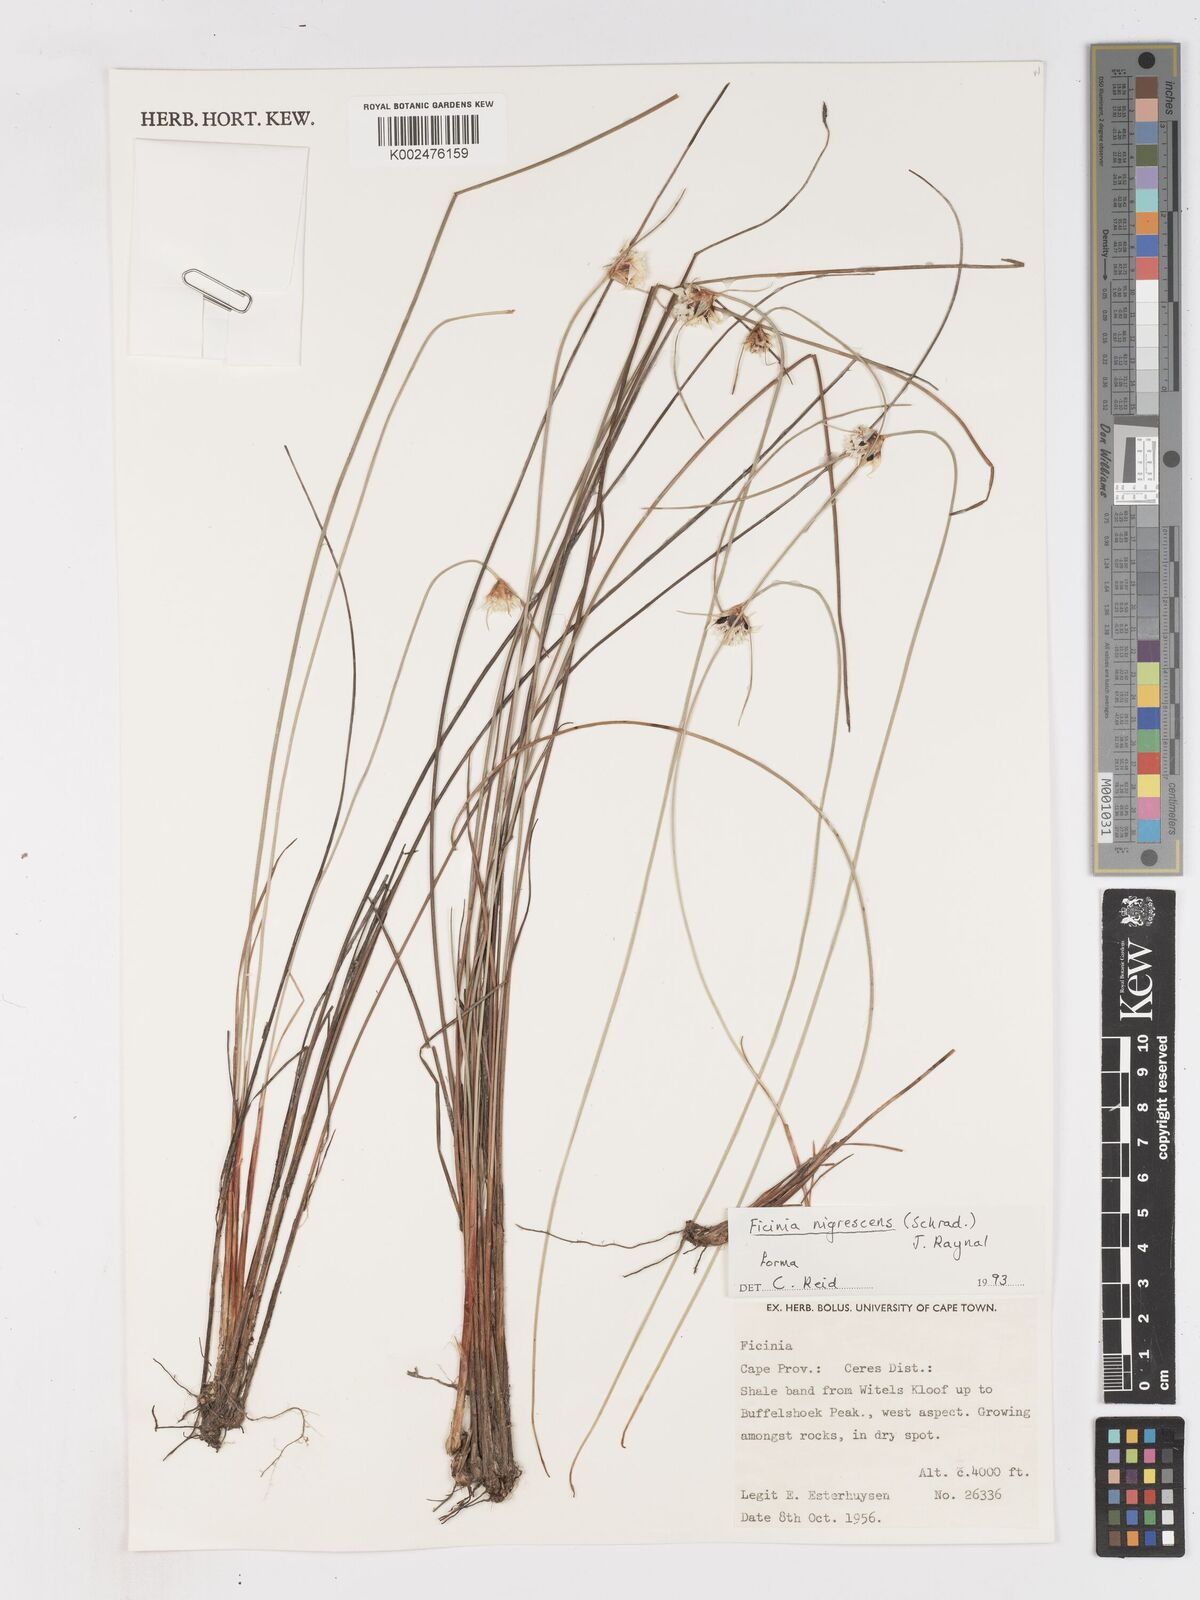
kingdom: Plantae
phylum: Tracheophyta
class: Liliopsida
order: Poales
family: Cyperaceae
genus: Ficinia
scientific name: Ficinia nigrescens
